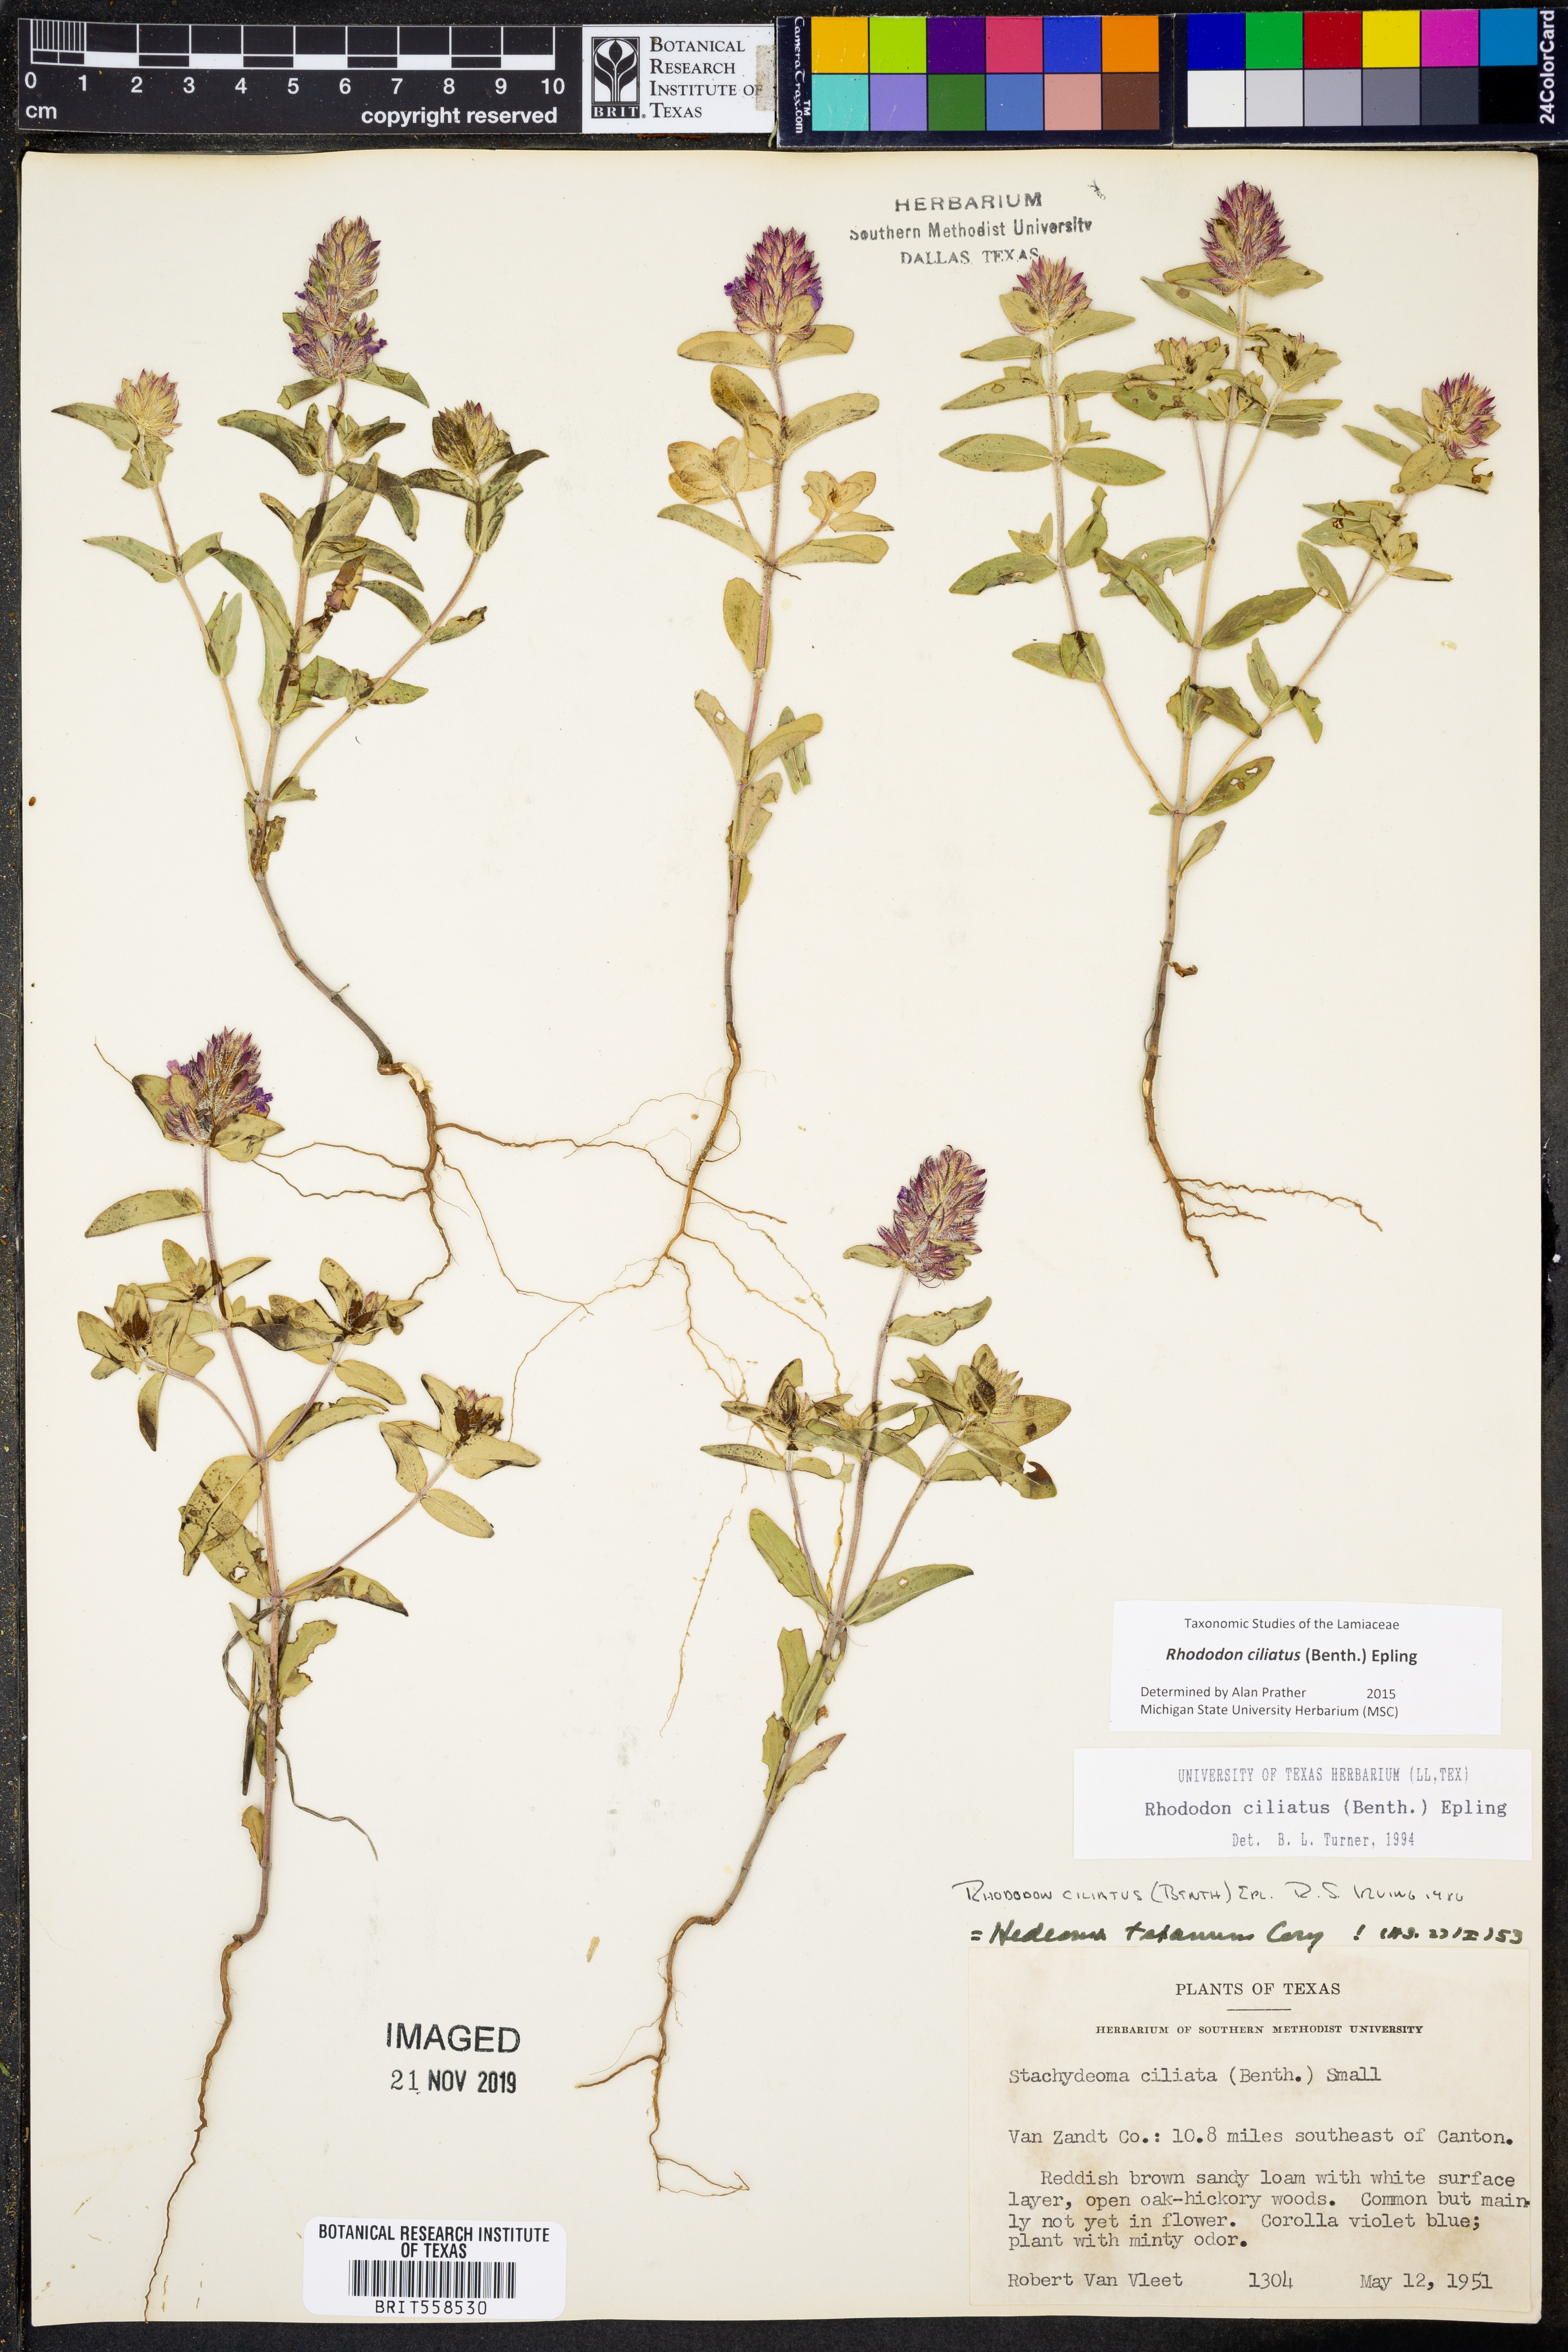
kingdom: Plantae
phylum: Tracheophyta
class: Magnoliopsida
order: Lamiales
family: Lamiaceae
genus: Rhododon
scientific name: Rhododon ciliatus
